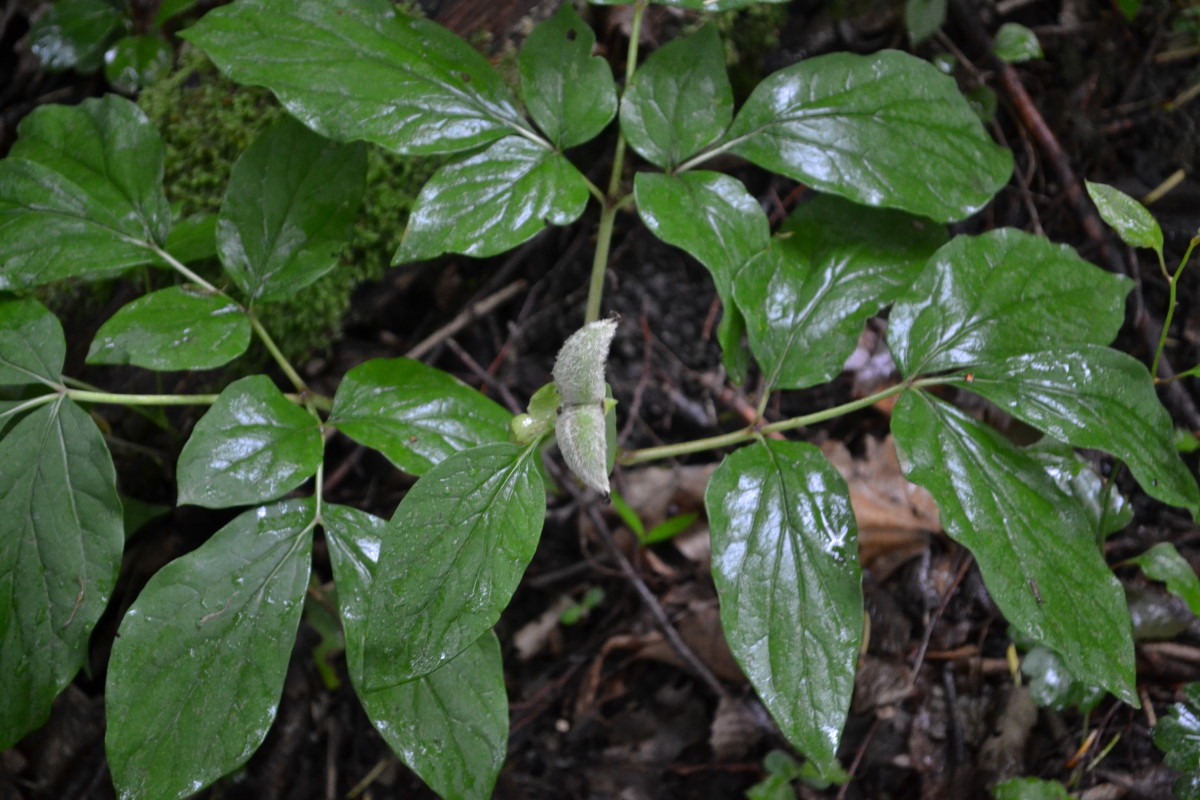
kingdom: Plantae
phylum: Tracheophyta
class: Magnoliopsida
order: Saxifragales
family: Paeoniaceae
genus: Paeonia
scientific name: Paeonia caucasica
